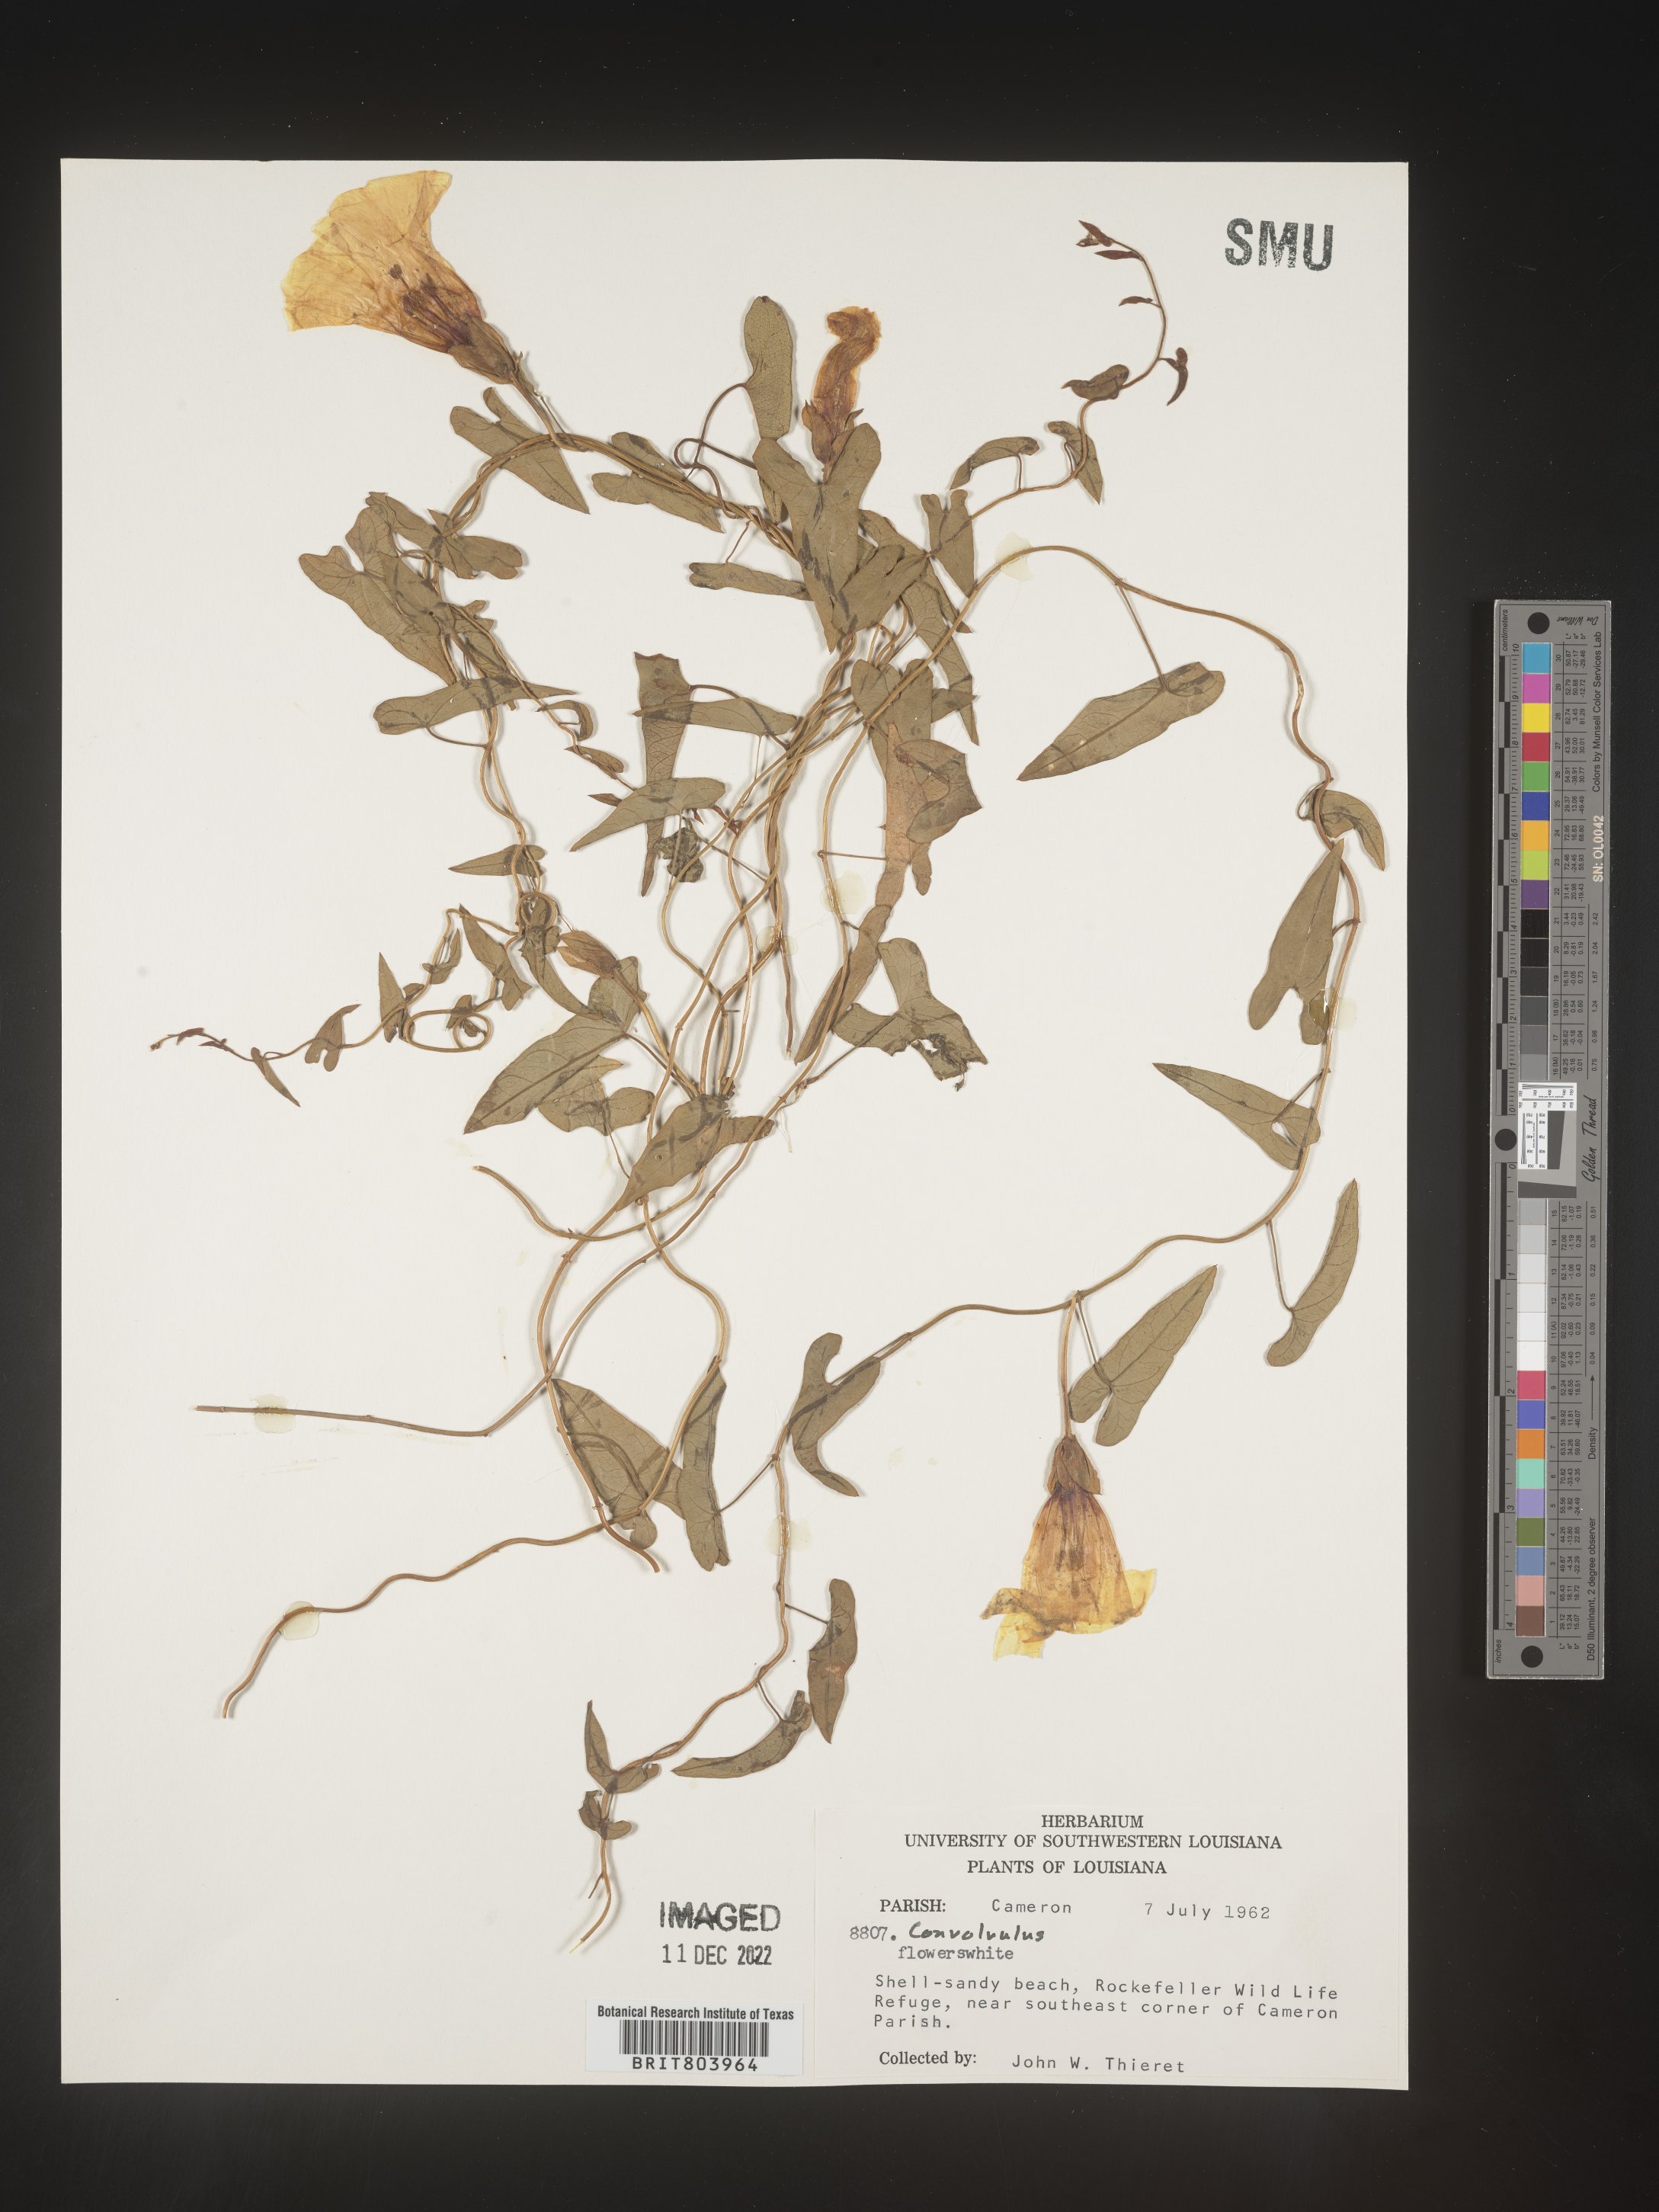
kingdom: Plantae
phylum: Tracheophyta
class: Magnoliopsida
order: Solanales
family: Convolvulaceae
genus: Calystegia
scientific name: Calystegia sepium
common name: Hedge bindweed
